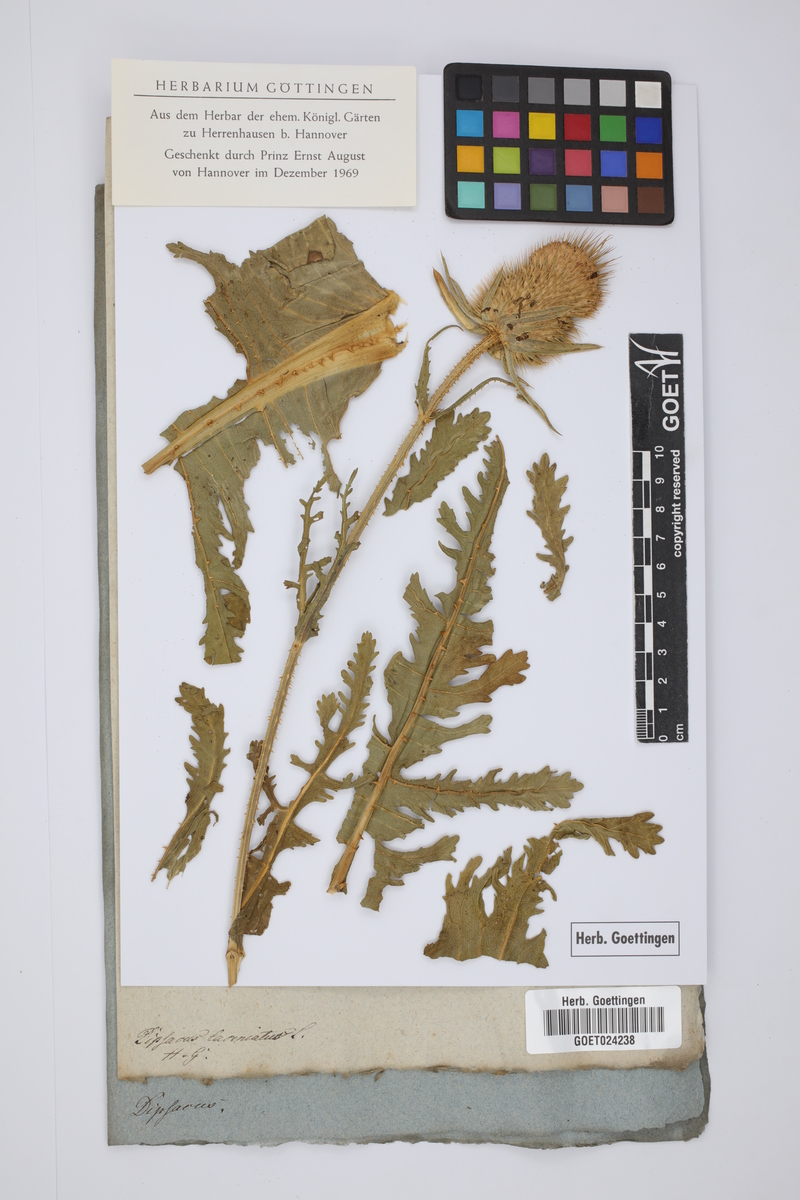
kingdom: Plantae
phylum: Tracheophyta
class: Magnoliopsida
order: Dipsacales
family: Caprifoliaceae
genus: Dipsacus
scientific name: Dipsacus laciniatus
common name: Cut-leaved teasel
